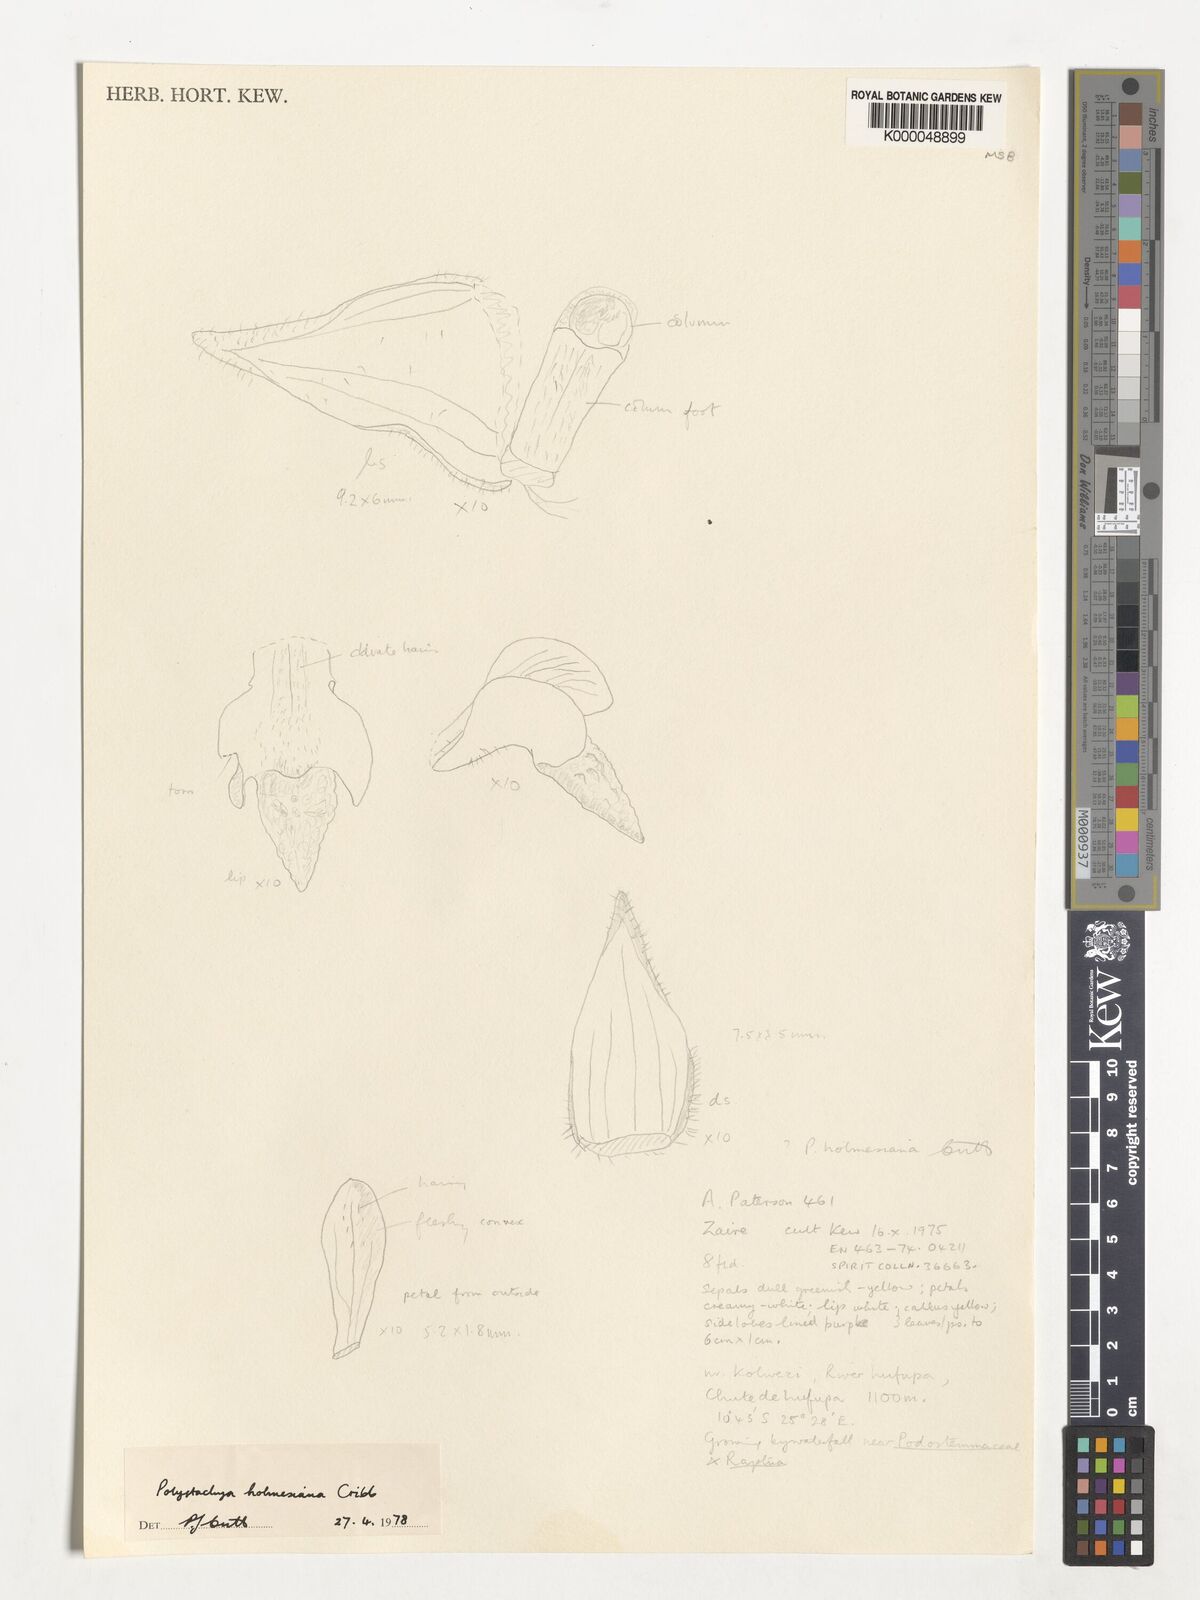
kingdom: Plantae
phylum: Tracheophyta
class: Liliopsida
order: Asparagales
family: Orchidaceae
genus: Polystachya
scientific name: Polystachya holmesiana
